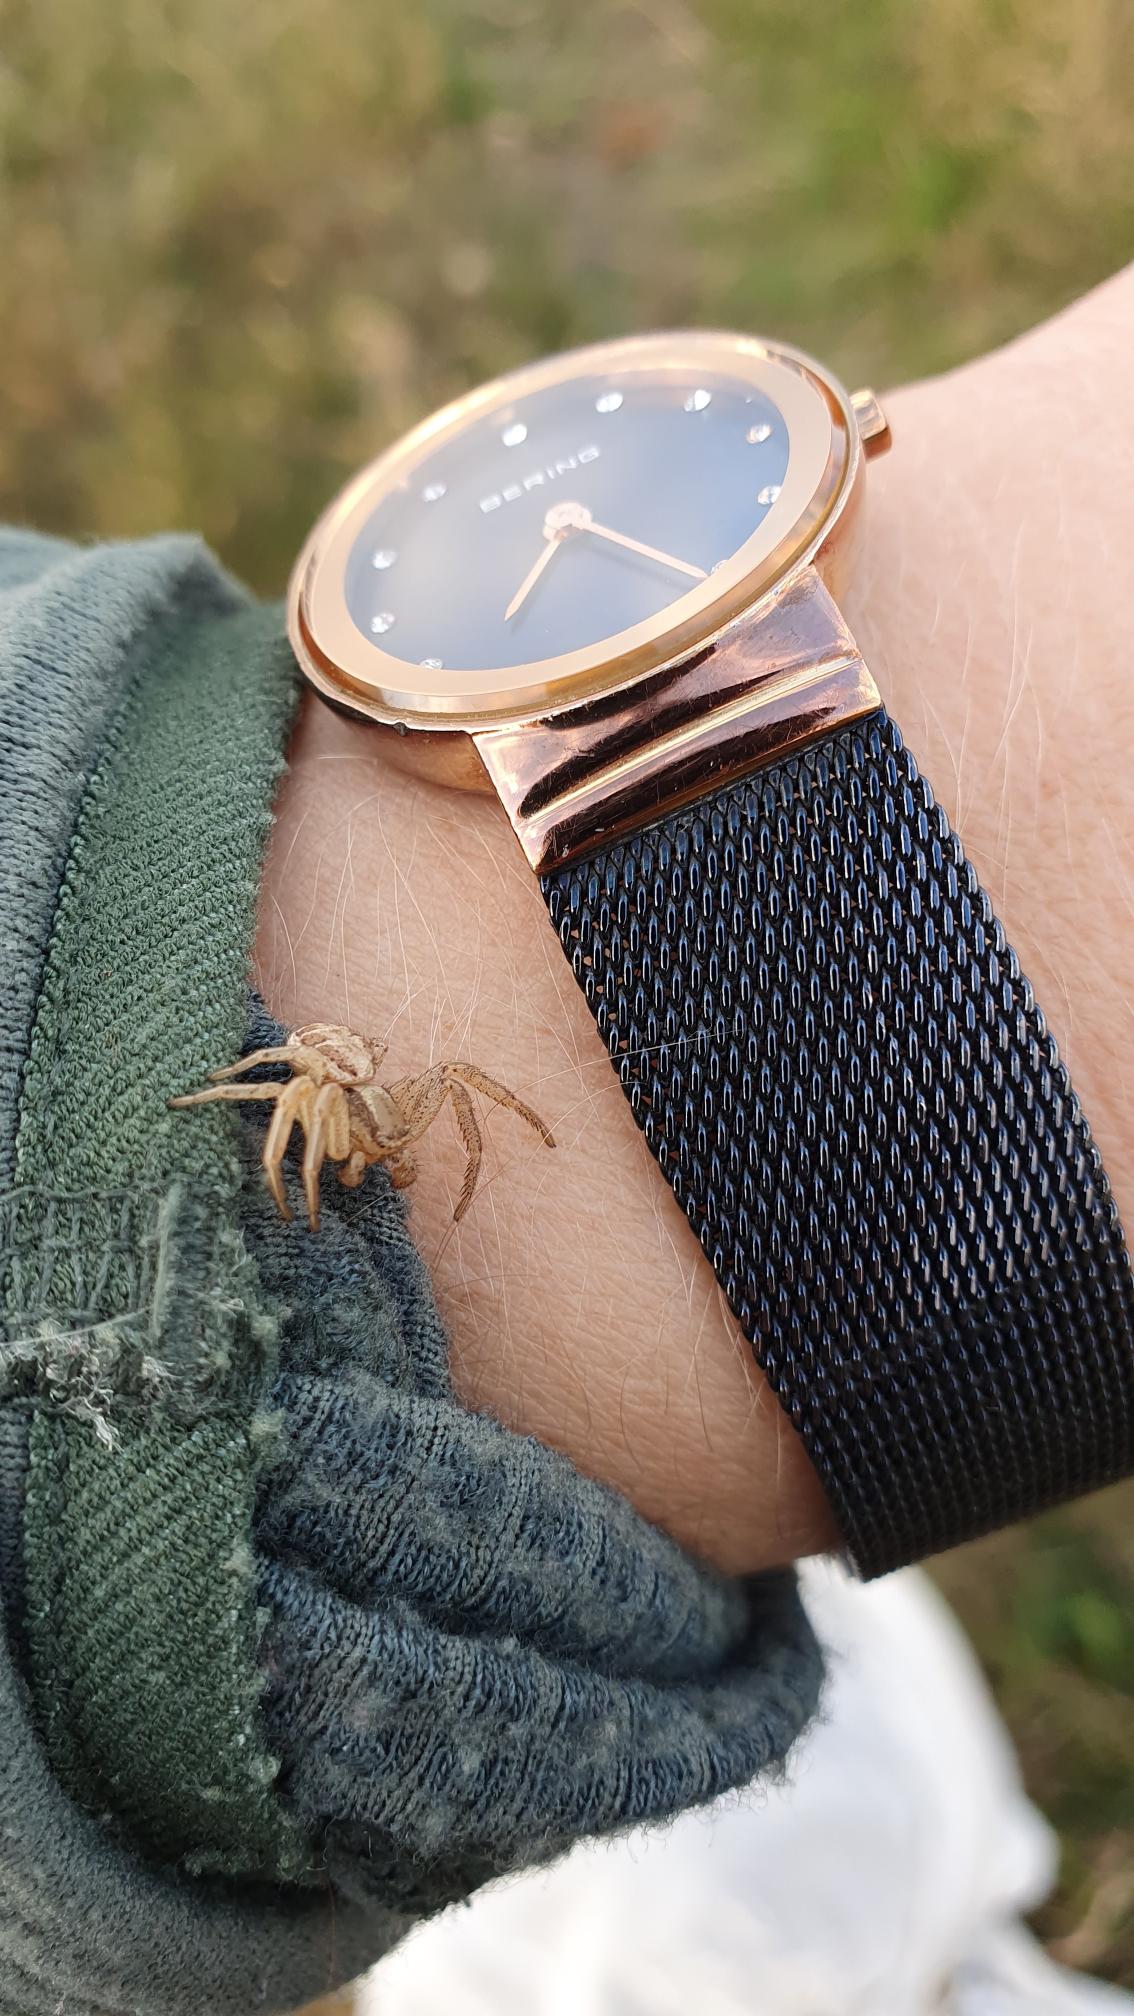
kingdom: Animalia
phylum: Arthropoda
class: Arachnida
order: Araneae
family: Thomisidae
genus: Xysticus
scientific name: Xysticus
